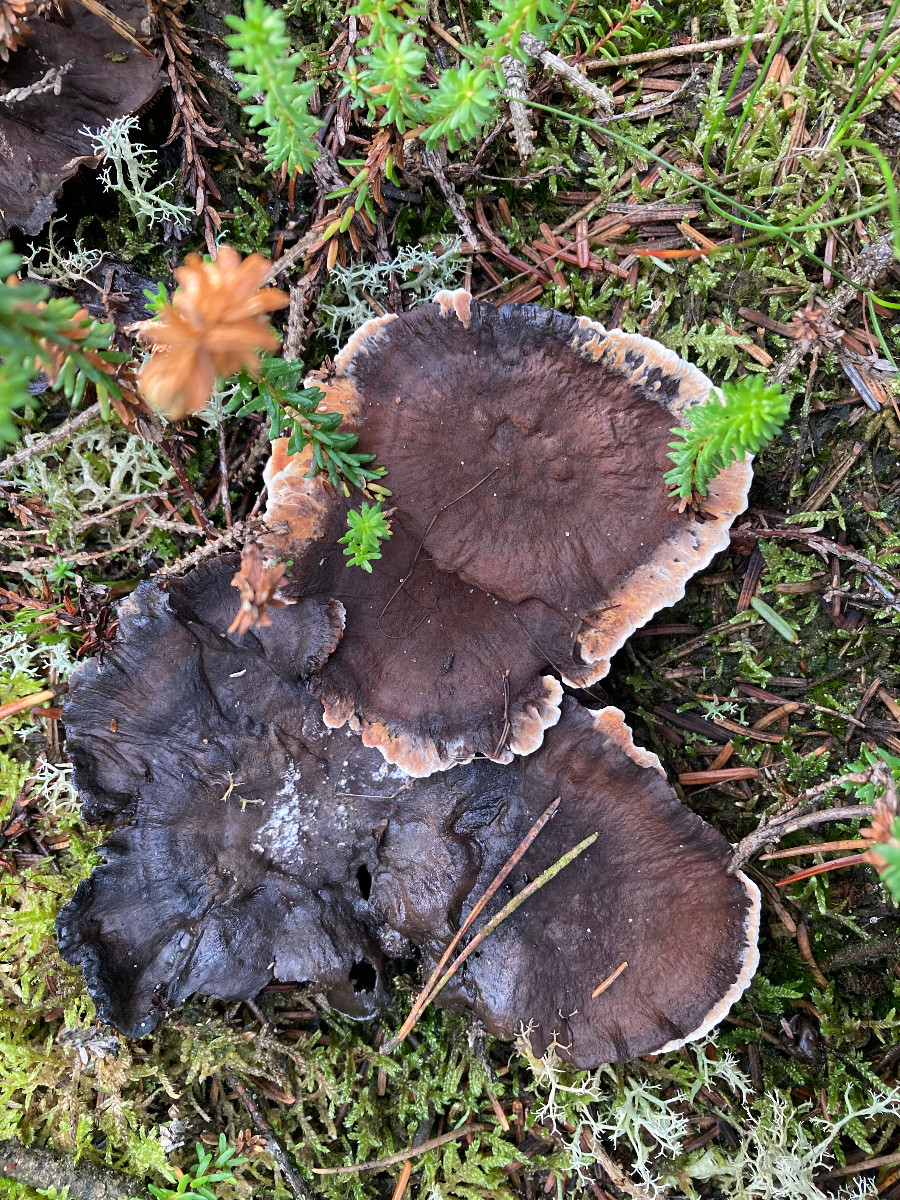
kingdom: Fungi
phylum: Basidiomycota
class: Agaricomycetes
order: Thelephorales
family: Bankeraceae
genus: Hydnellum
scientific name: Hydnellum aurantiacum
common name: orange korkpigsvamp
